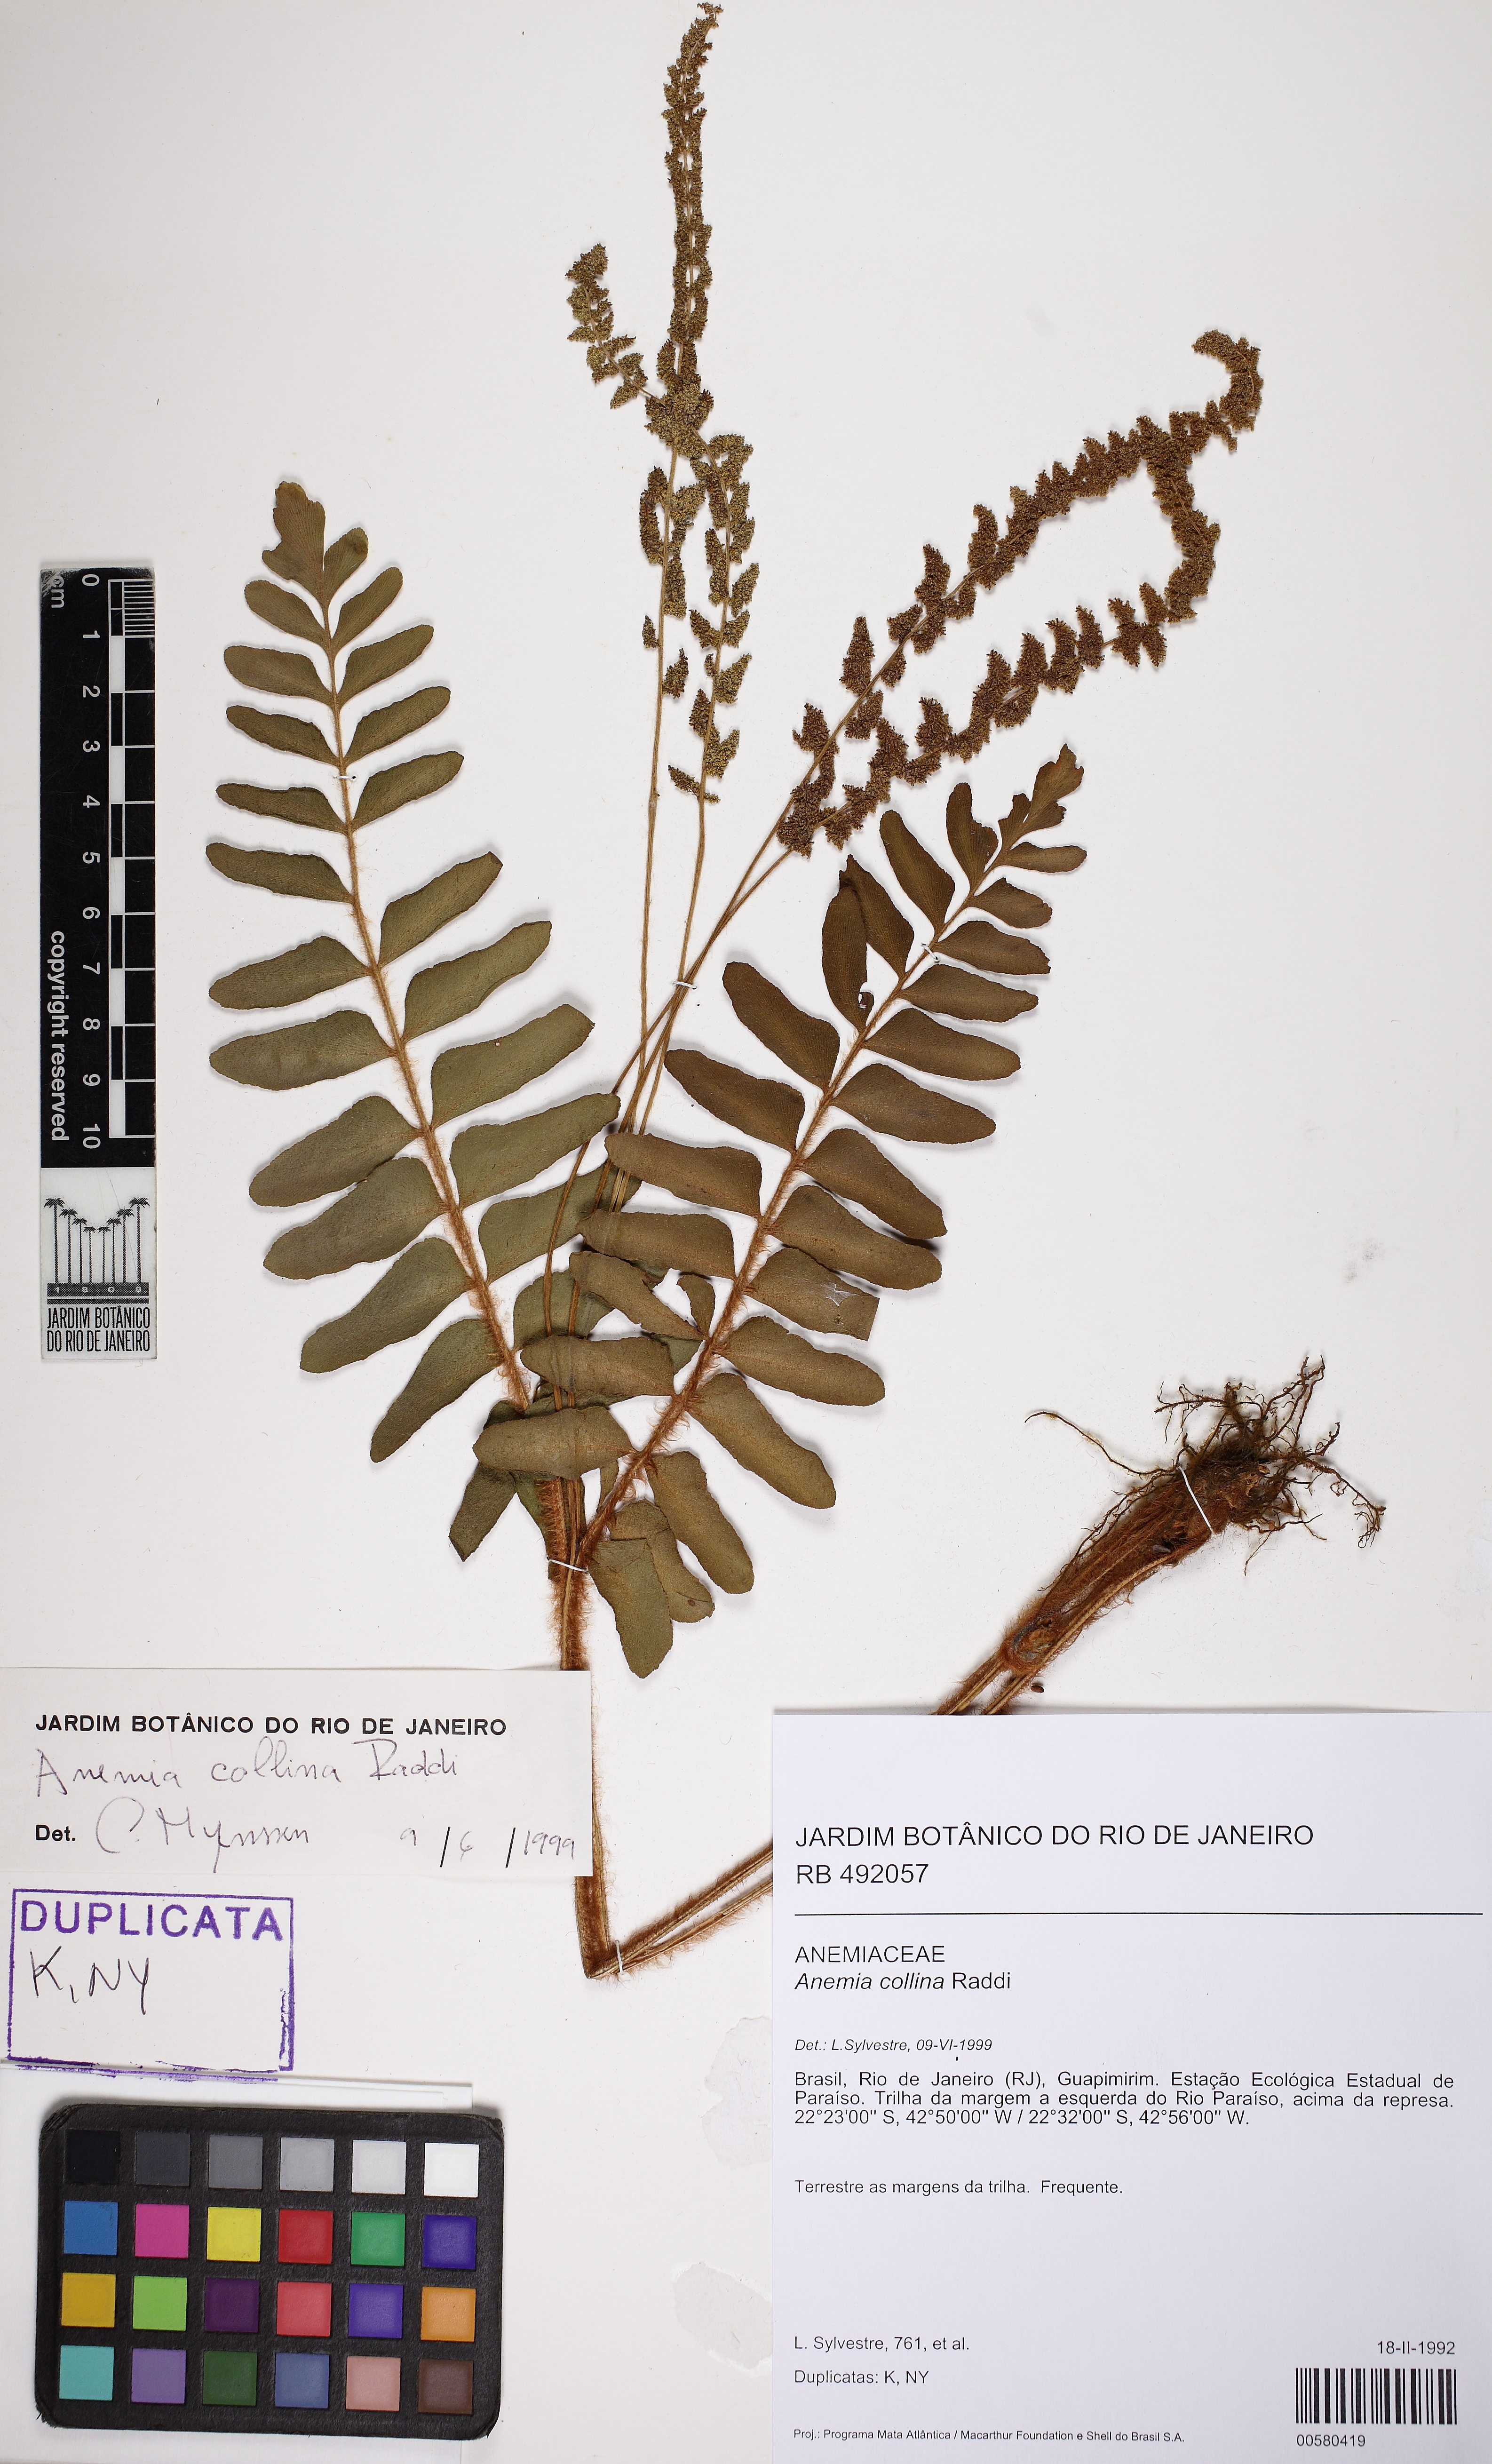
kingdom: Plantae
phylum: Tracheophyta
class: Polypodiopsida
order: Schizaeales
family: Anemiaceae
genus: Anemia
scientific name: Anemia collina
